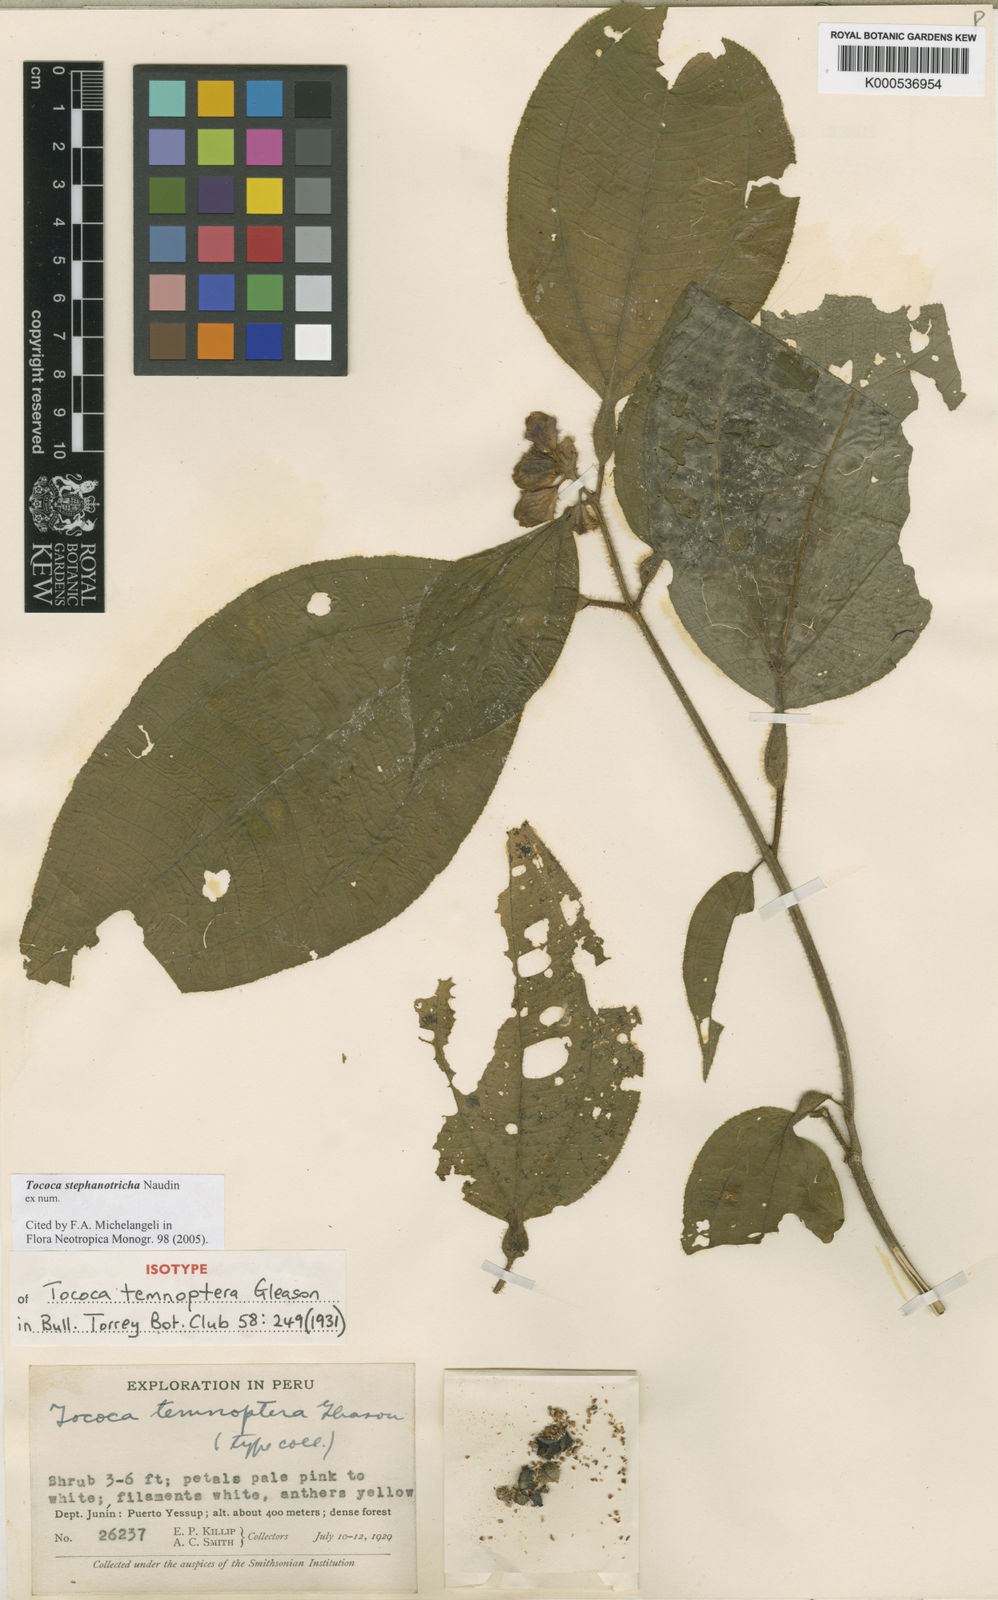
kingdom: Plantae
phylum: Tracheophyta
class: Magnoliopsida
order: Myrtales
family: Melastomataceae
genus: Miconia
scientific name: Miconia stephanotricha
